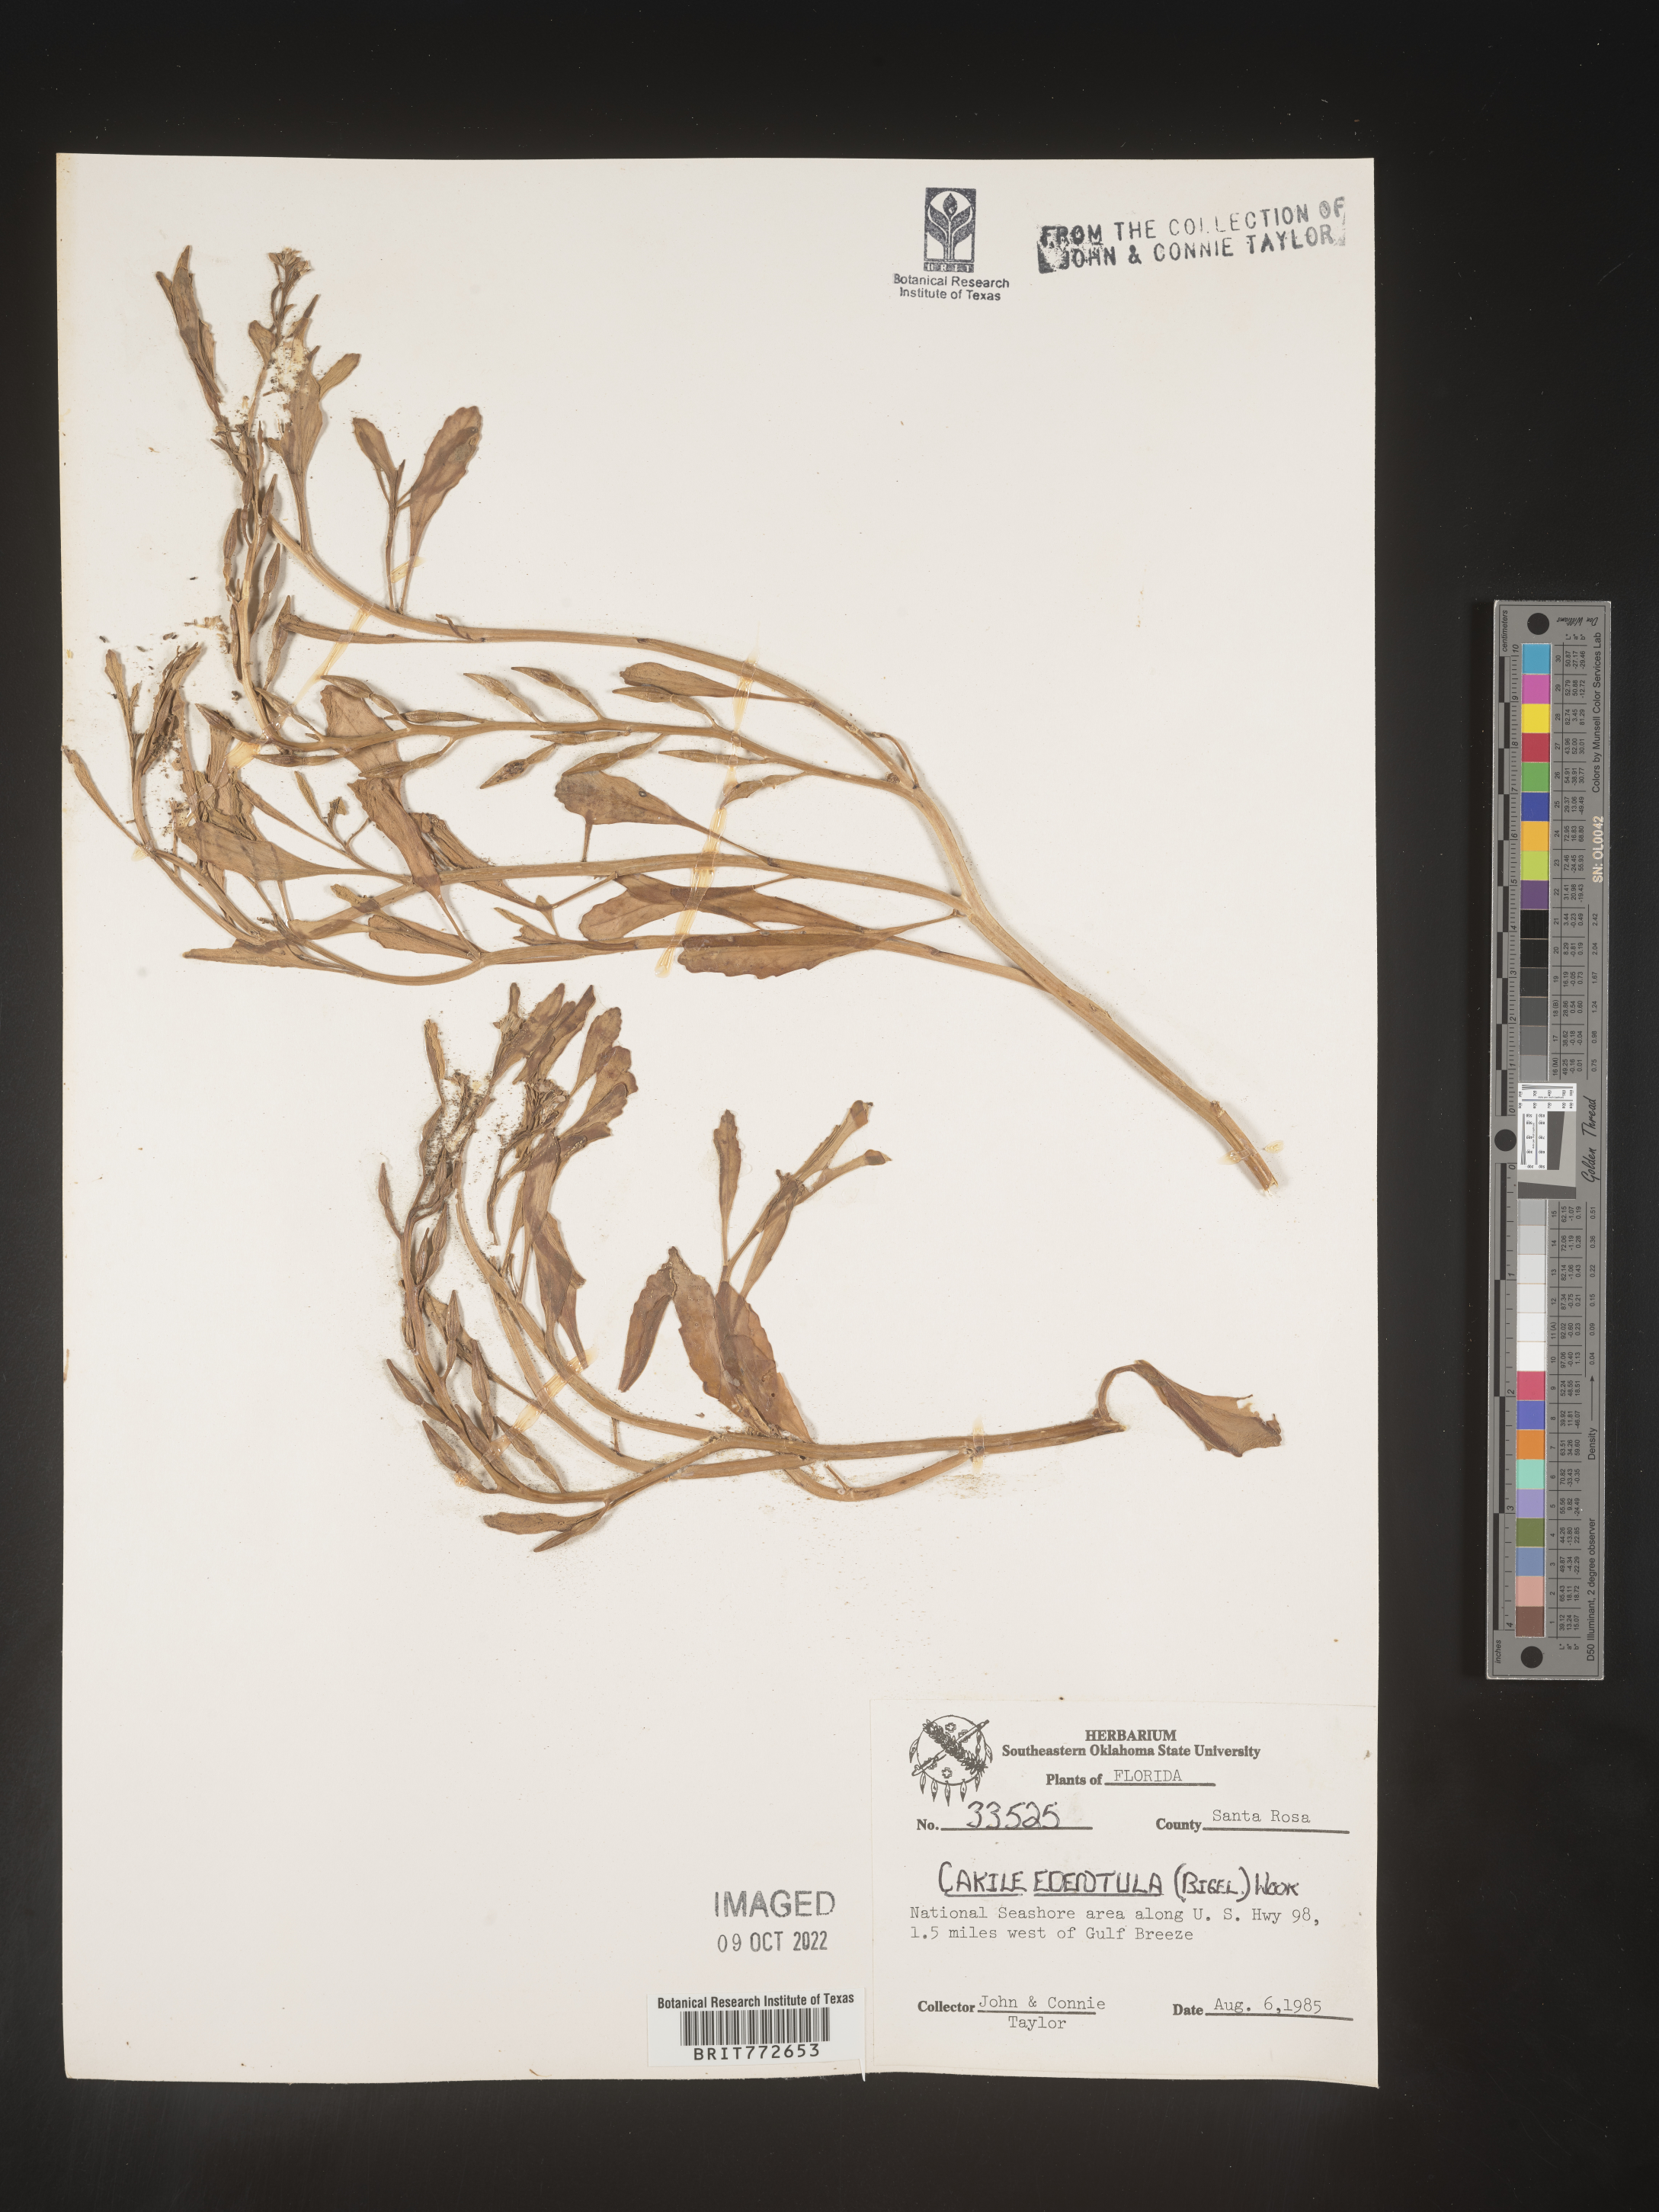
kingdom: Plantae
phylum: Tracheophyta
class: Magnoliopsida
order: Brassicales
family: Brassicaceae
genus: Cakile
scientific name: Cakile edentula
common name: American sea rocket
